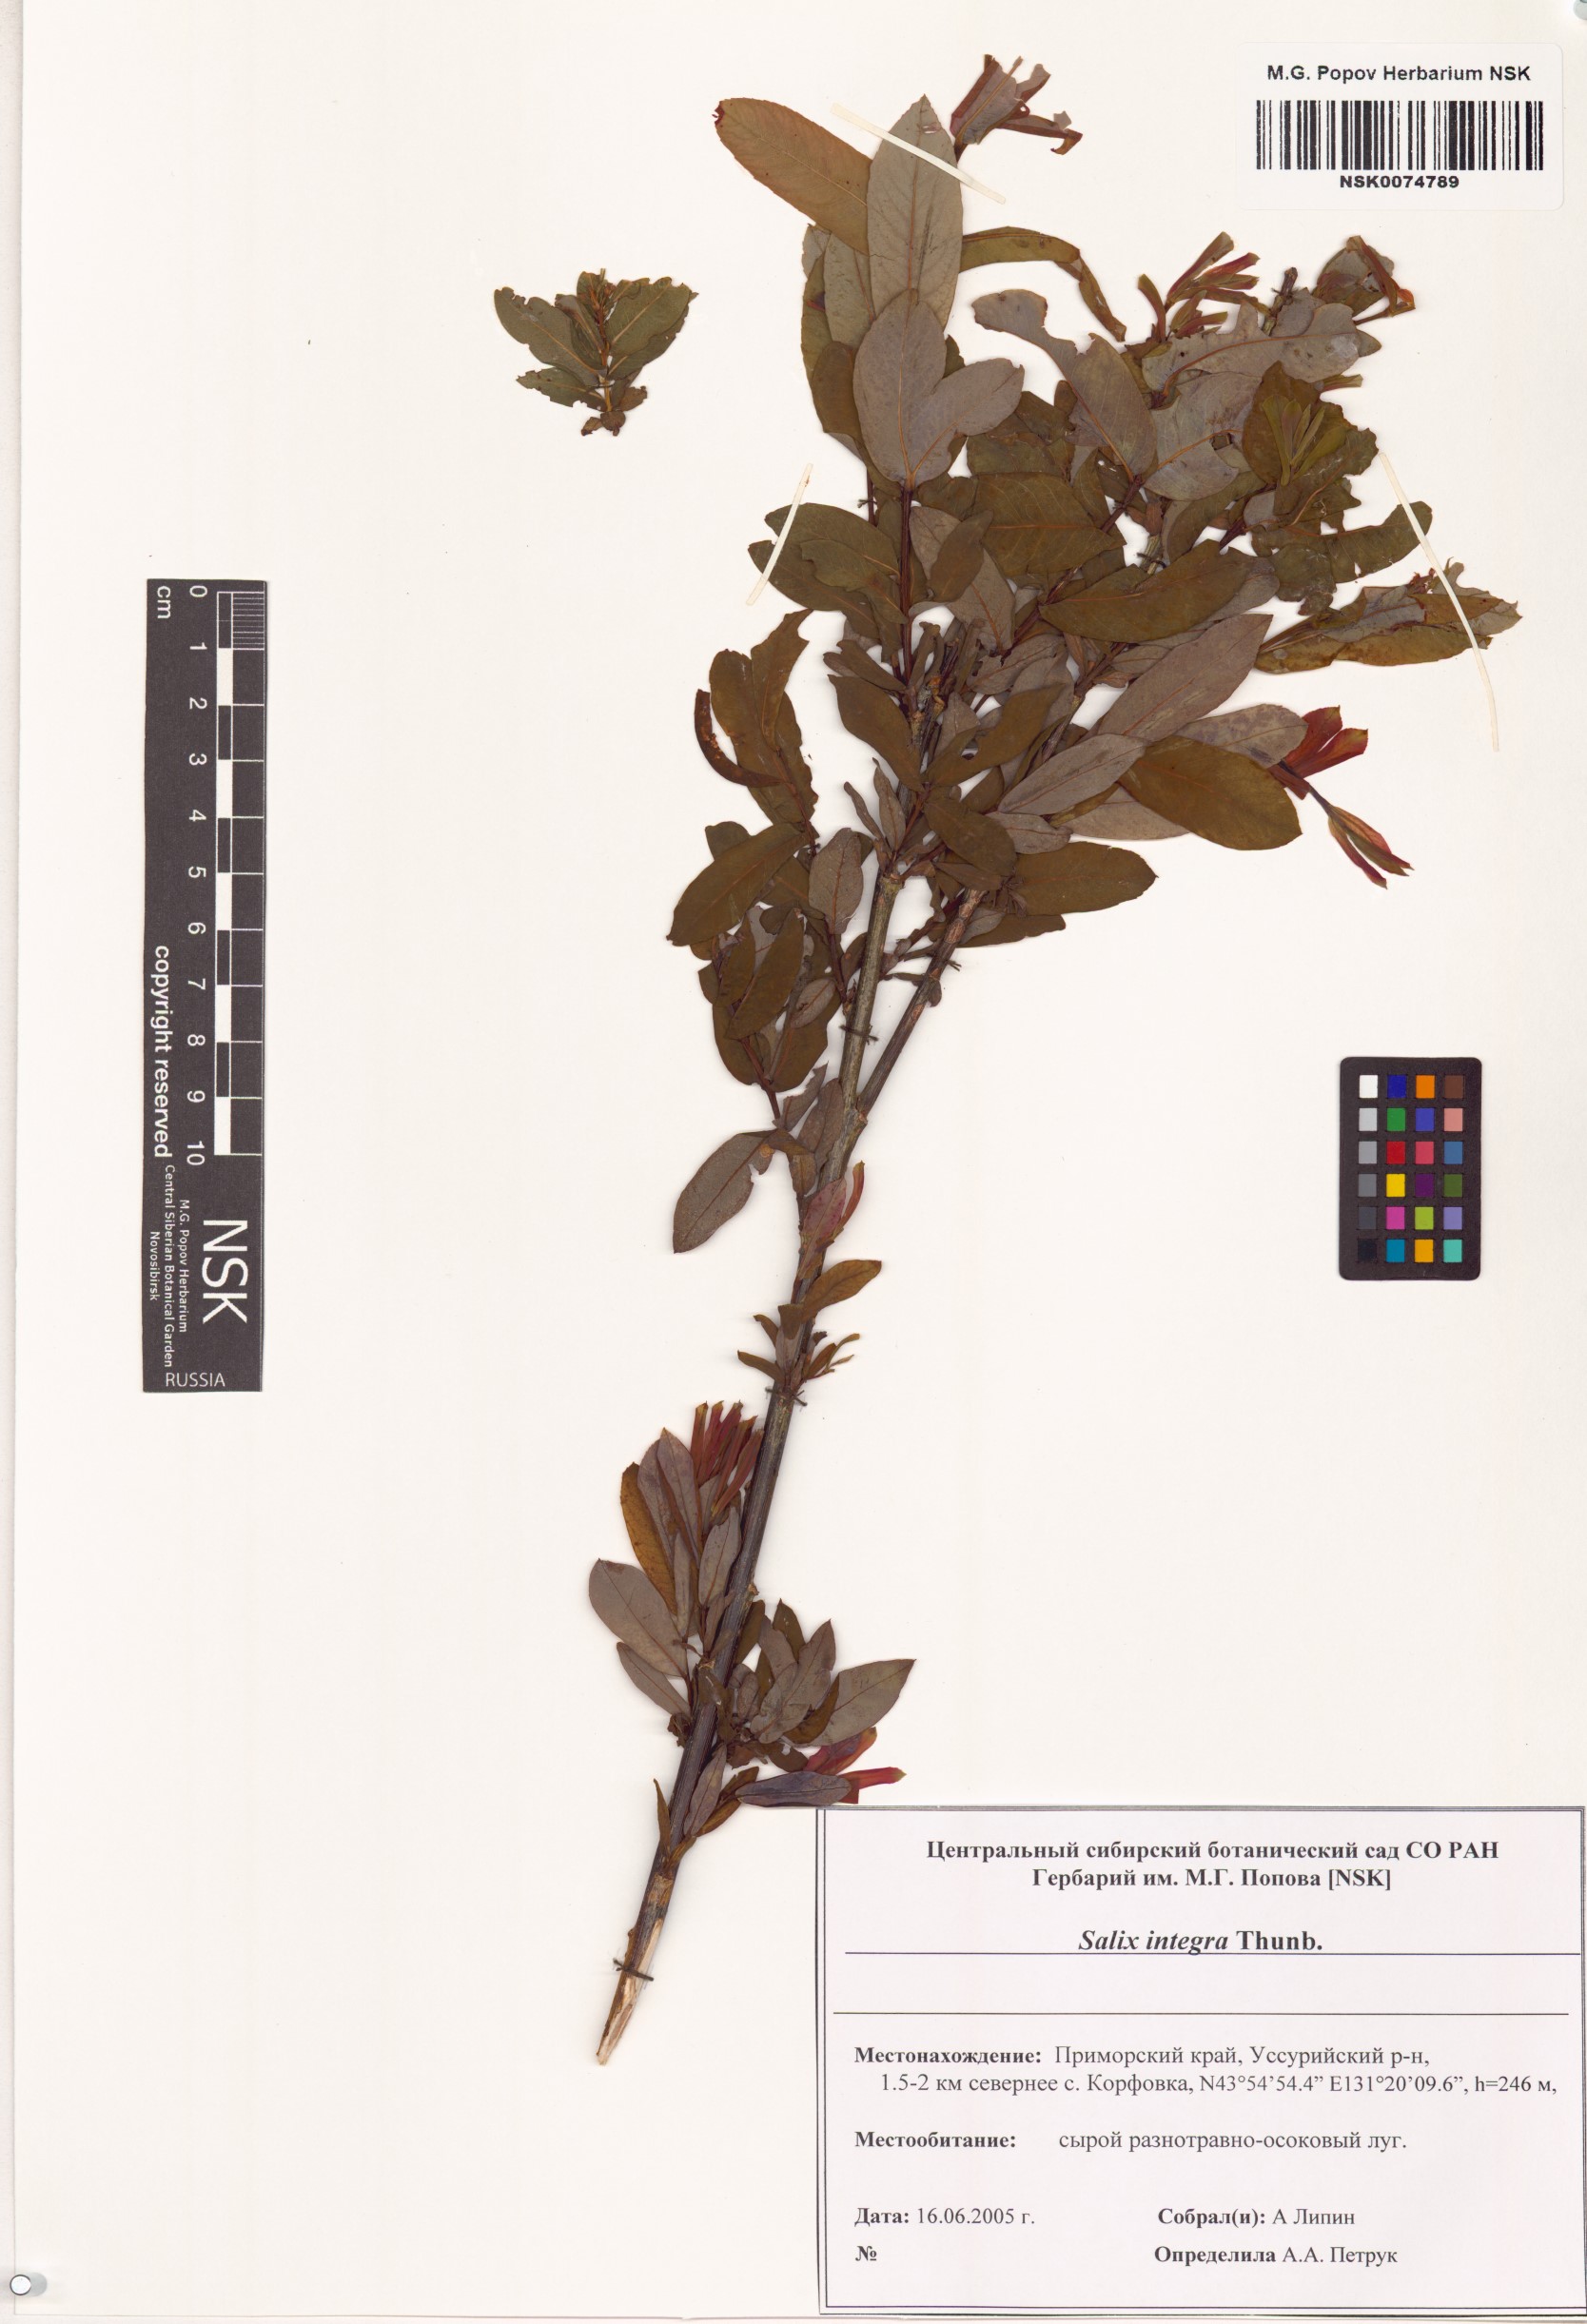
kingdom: Plantae
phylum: Tracheophyta
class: Magnoliopsida
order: Malpighiales
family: Salicaceae
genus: Salix
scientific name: Salix integra
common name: Dappled willow
